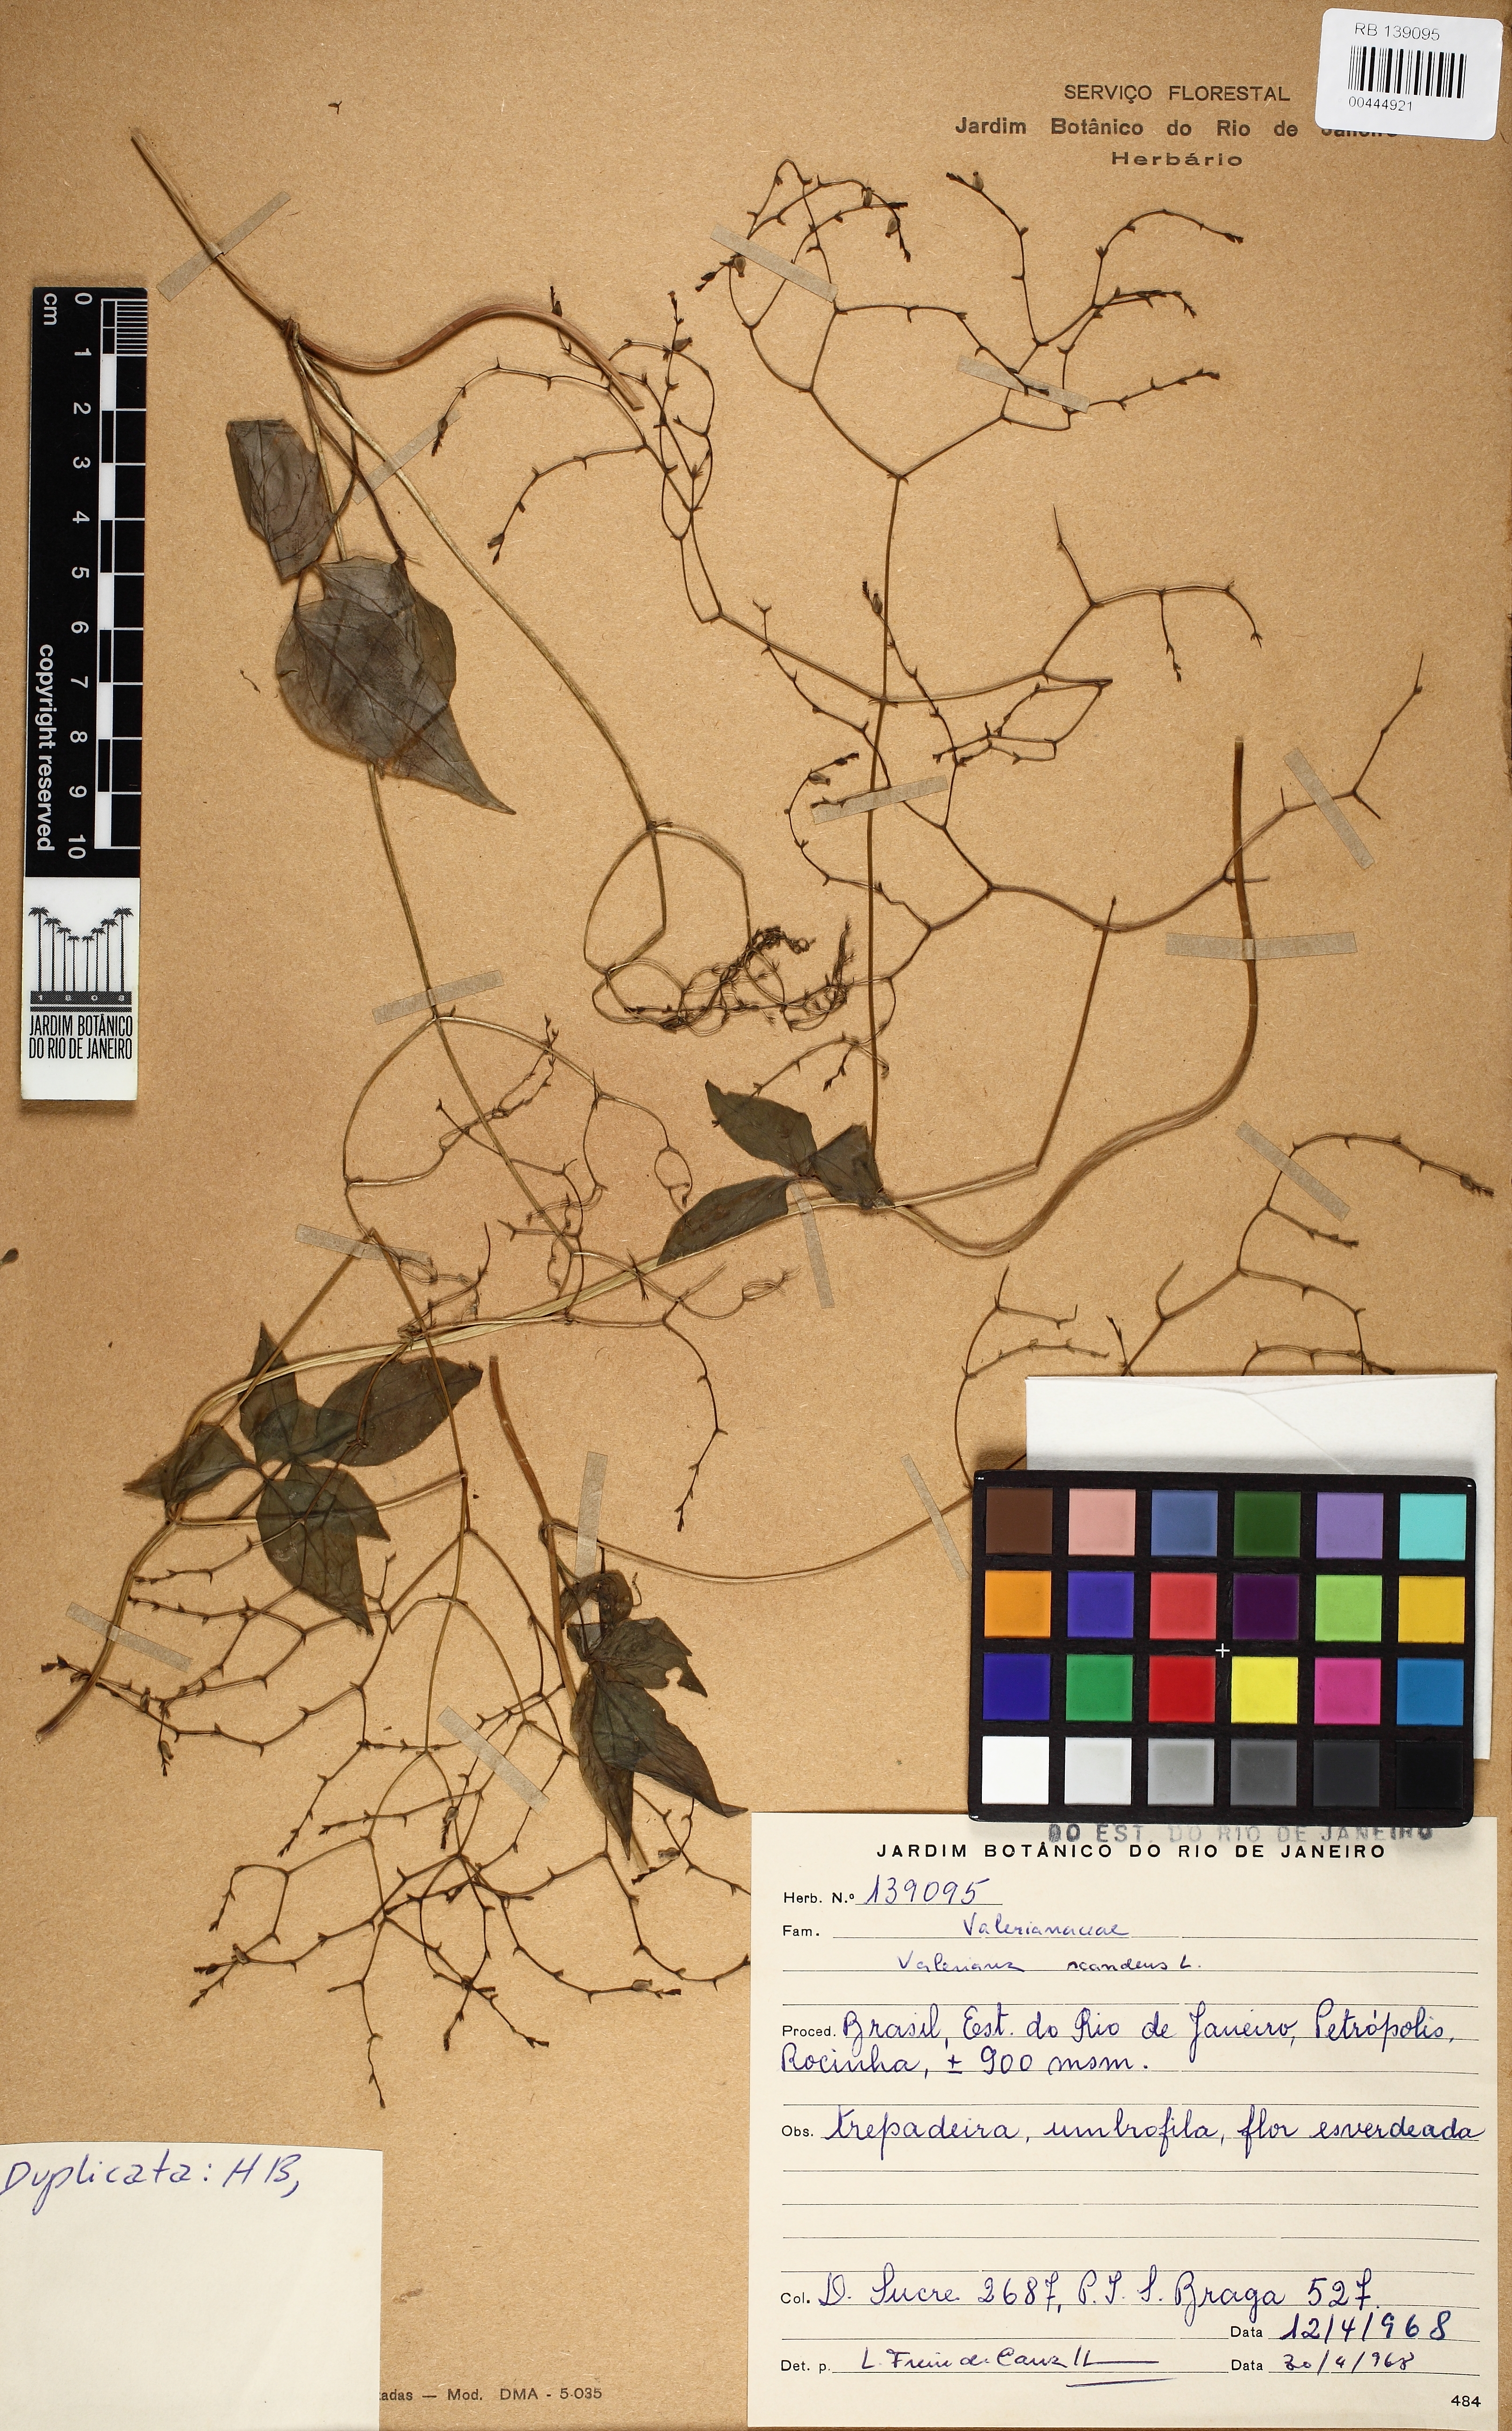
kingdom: Plantae
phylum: Tracheophyta
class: Magnoliopsida
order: Dipsacales
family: Caprifoliaceae
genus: Valeriana
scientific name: Valeriana scandens
